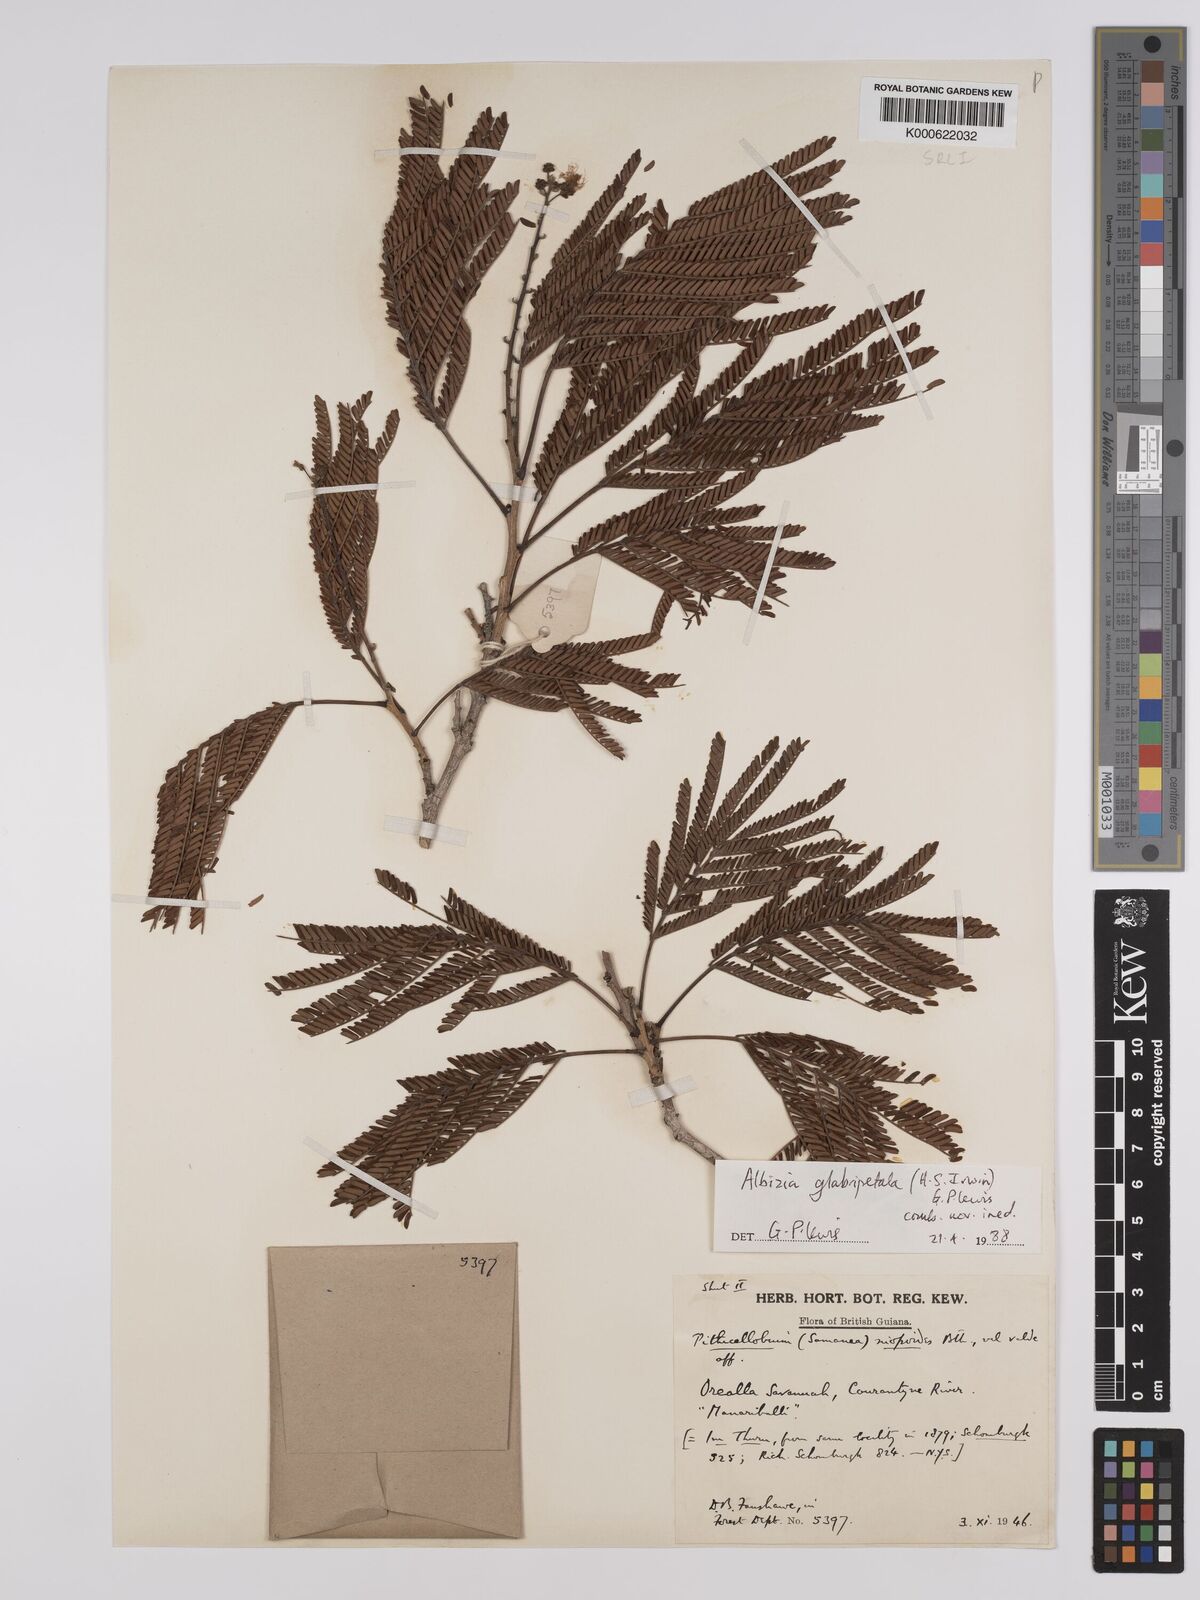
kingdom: Plantae
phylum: Tracheophyta
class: Magnoliopsida
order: Fabales
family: Fabaceae
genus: Albizia
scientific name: Albizia glabripetala
